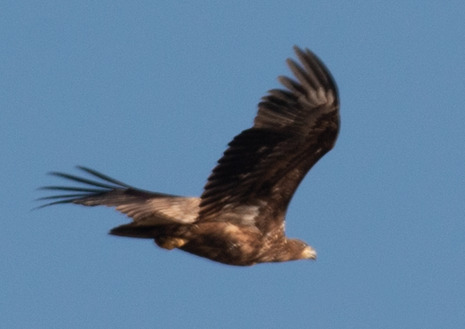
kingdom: Animalia
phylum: Chordata
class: Aves
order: Accipitriformes
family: Accipitridae
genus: Haliaeetus
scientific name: Haliaeetus albicilla
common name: Havørn
